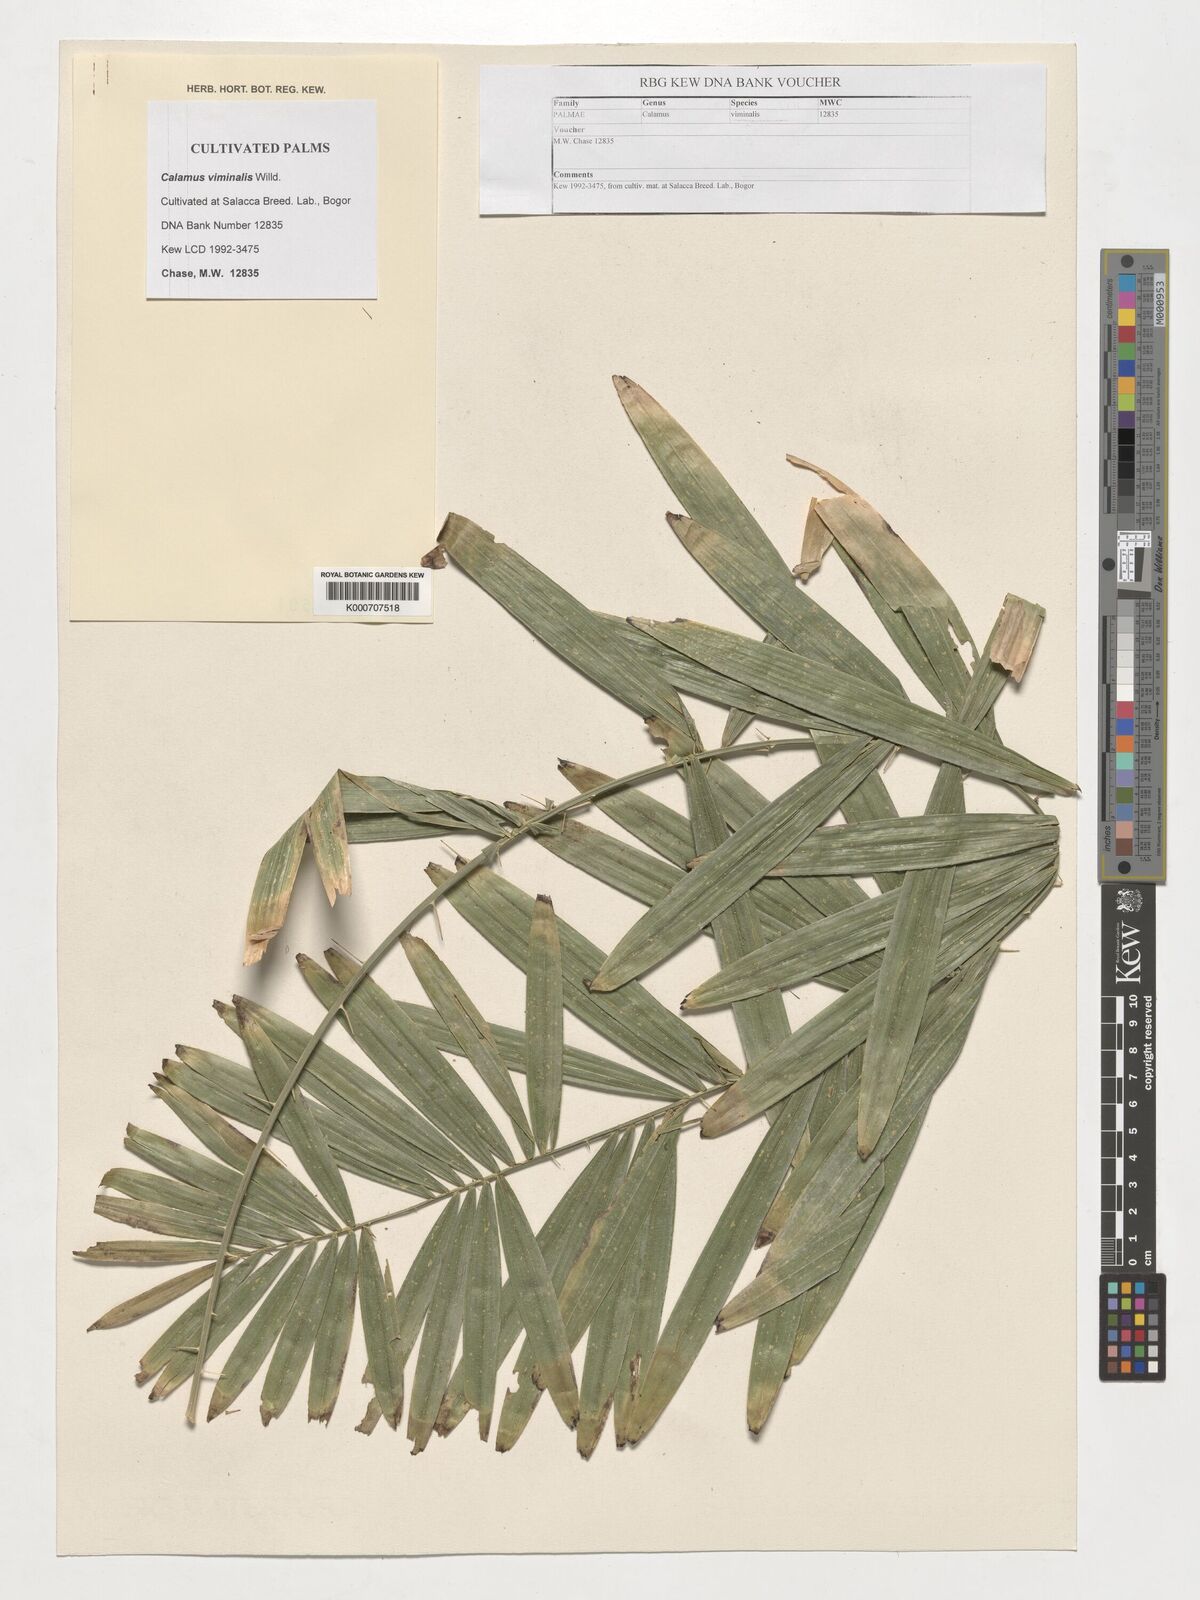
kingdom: Plantae
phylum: Tracheophyta
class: Liliopsida
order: Arecales
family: Arecaceae
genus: Calamus
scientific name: Calamus viminalis
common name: Osier-like rattan palm
